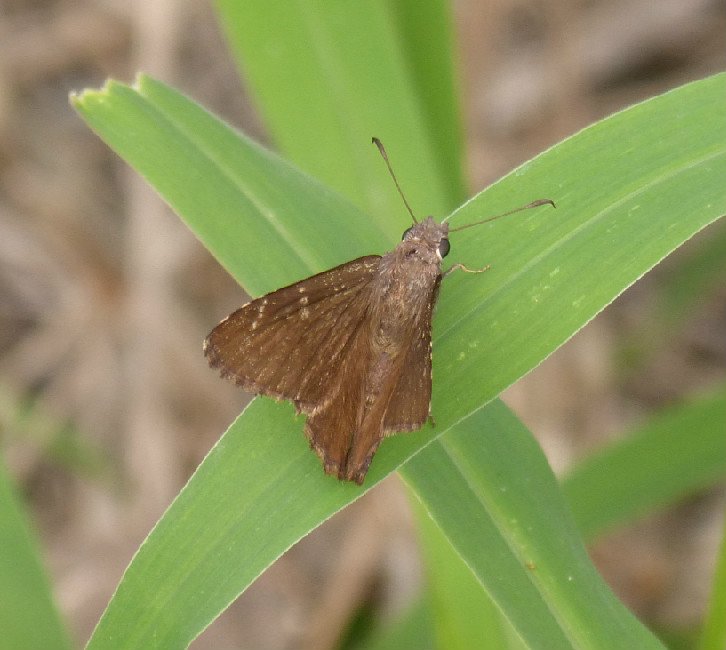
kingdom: Animalia
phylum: Arthropoda
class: Insecta
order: Lepidoptera
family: Hesperiidae
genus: Lerema
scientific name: Lerema accius
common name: Clouded Skipper
